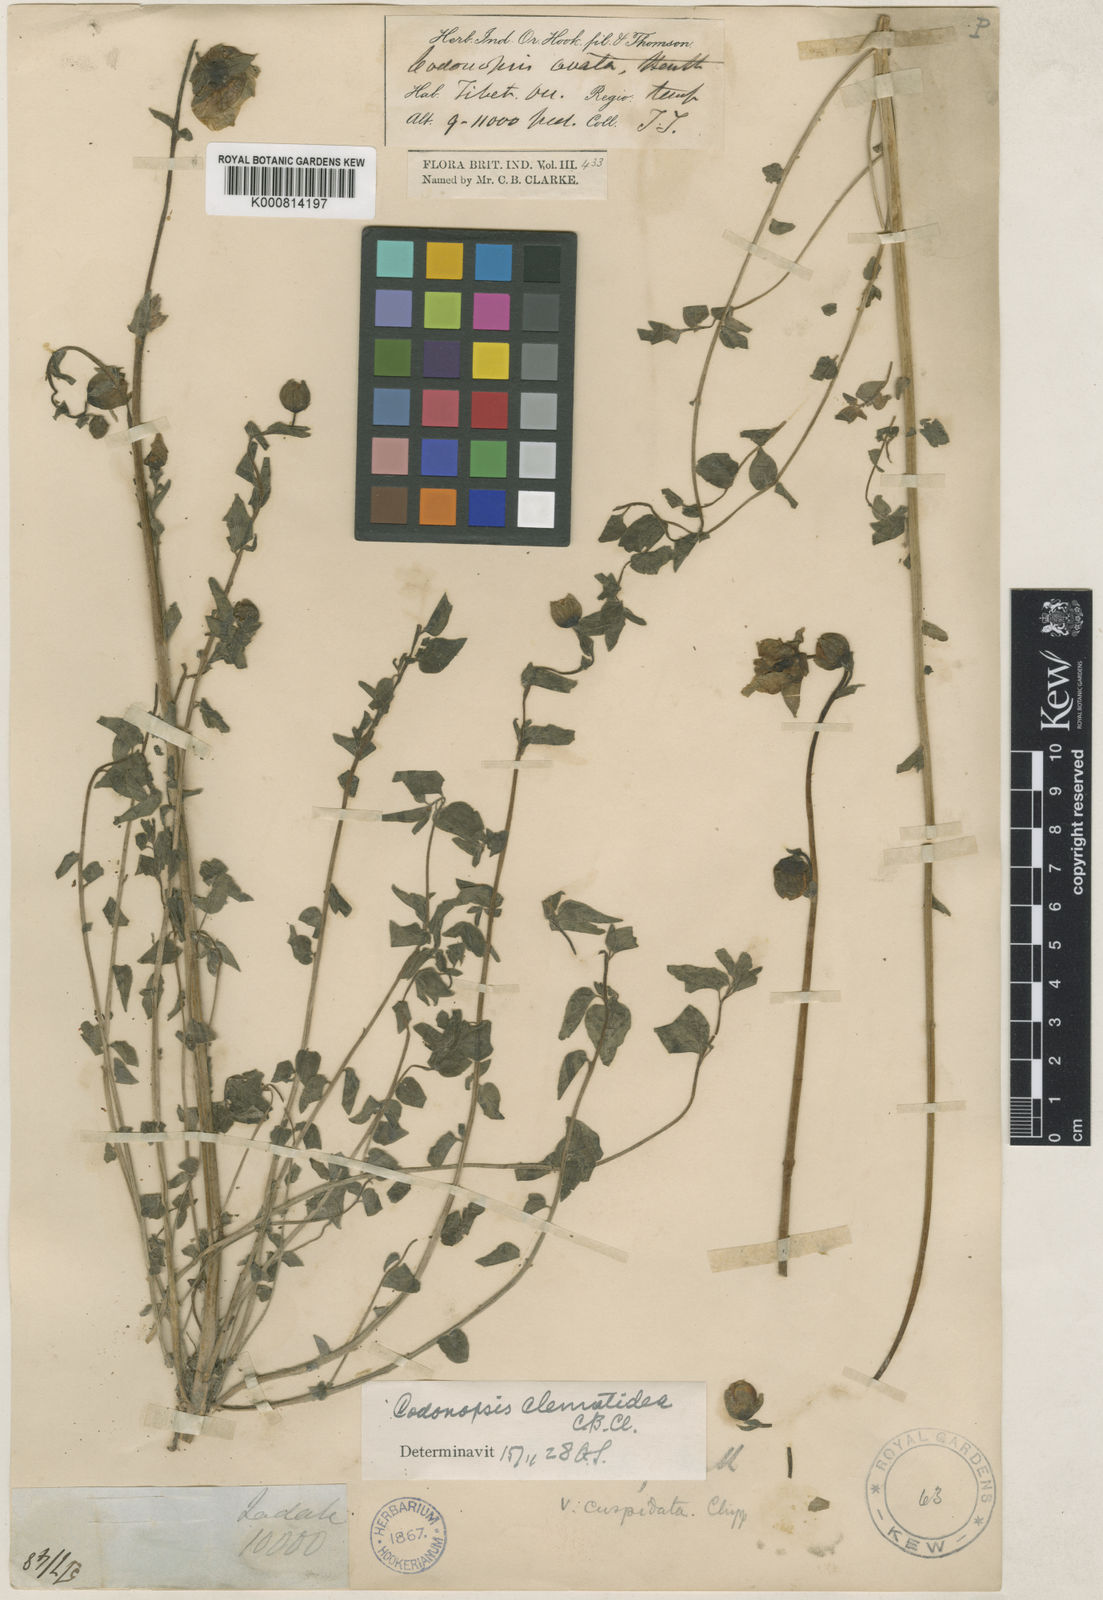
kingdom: Plantae
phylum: Tracheophyta
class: Magnoliopsida
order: Asterales
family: Campanulaceae
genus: Codonopsis
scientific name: Codonopsis clematidea
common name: Bonnet-bellflower
